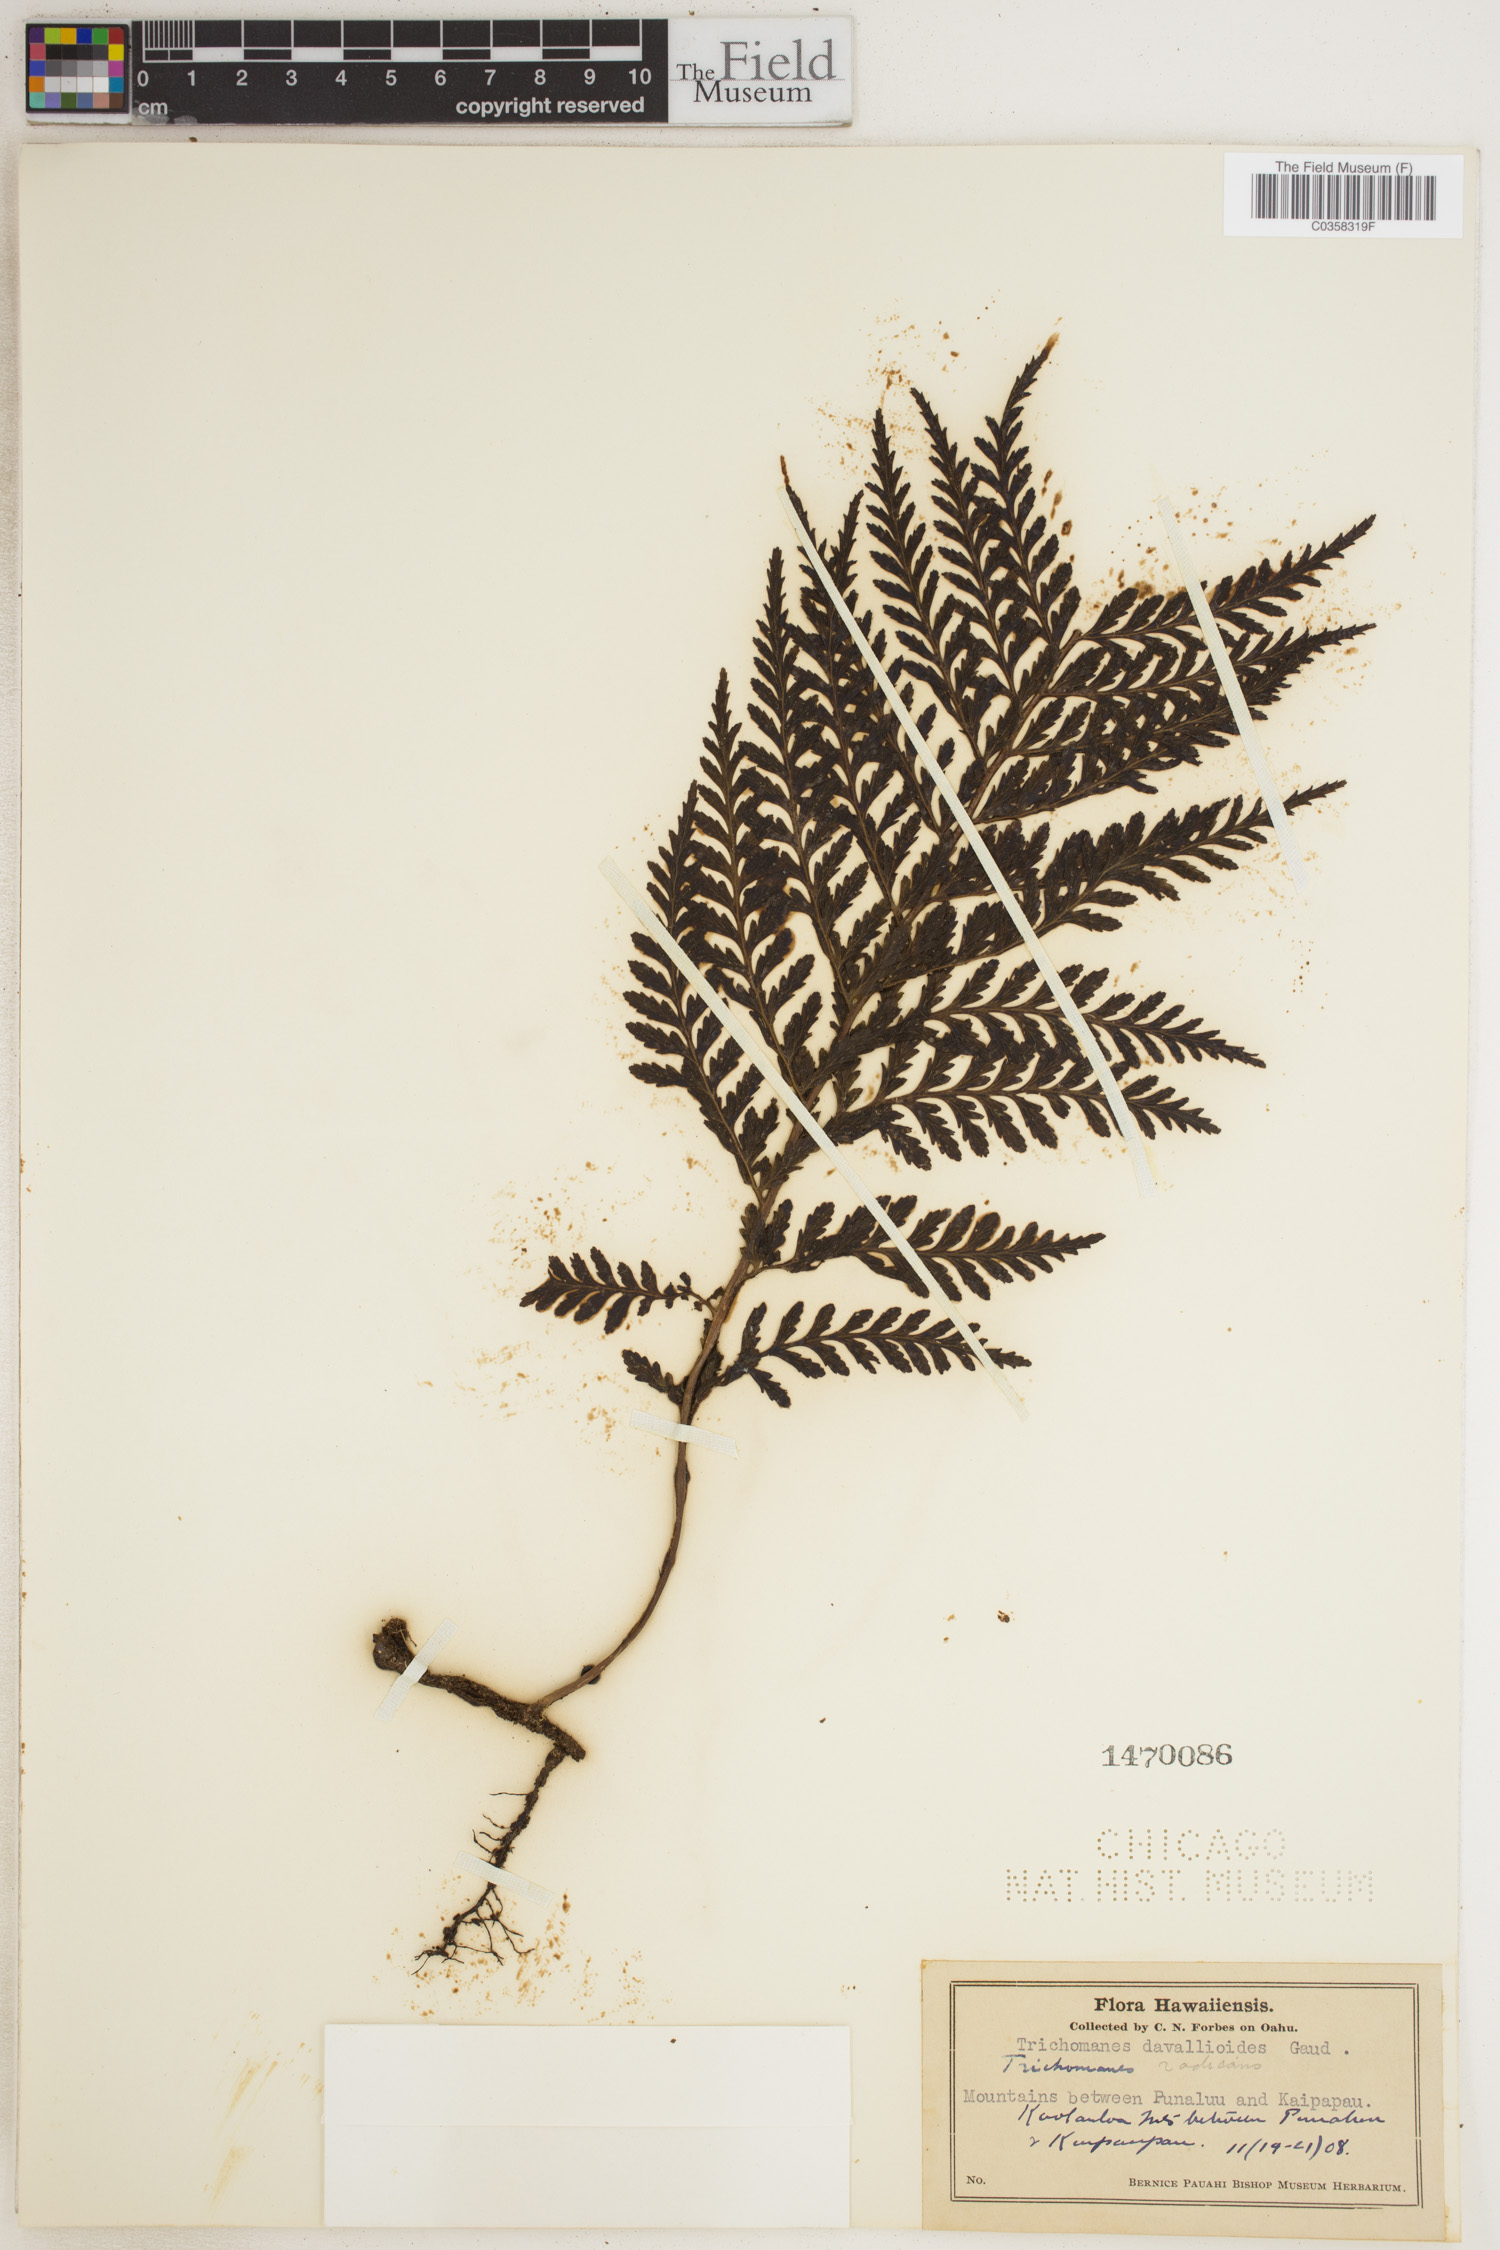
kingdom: Plantae
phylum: Tracheophyta
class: Polypodiopsida
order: Hymenophyllales
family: Hymenophyllaceae
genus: Vandenboschia
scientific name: Vandenboschia davallioides
